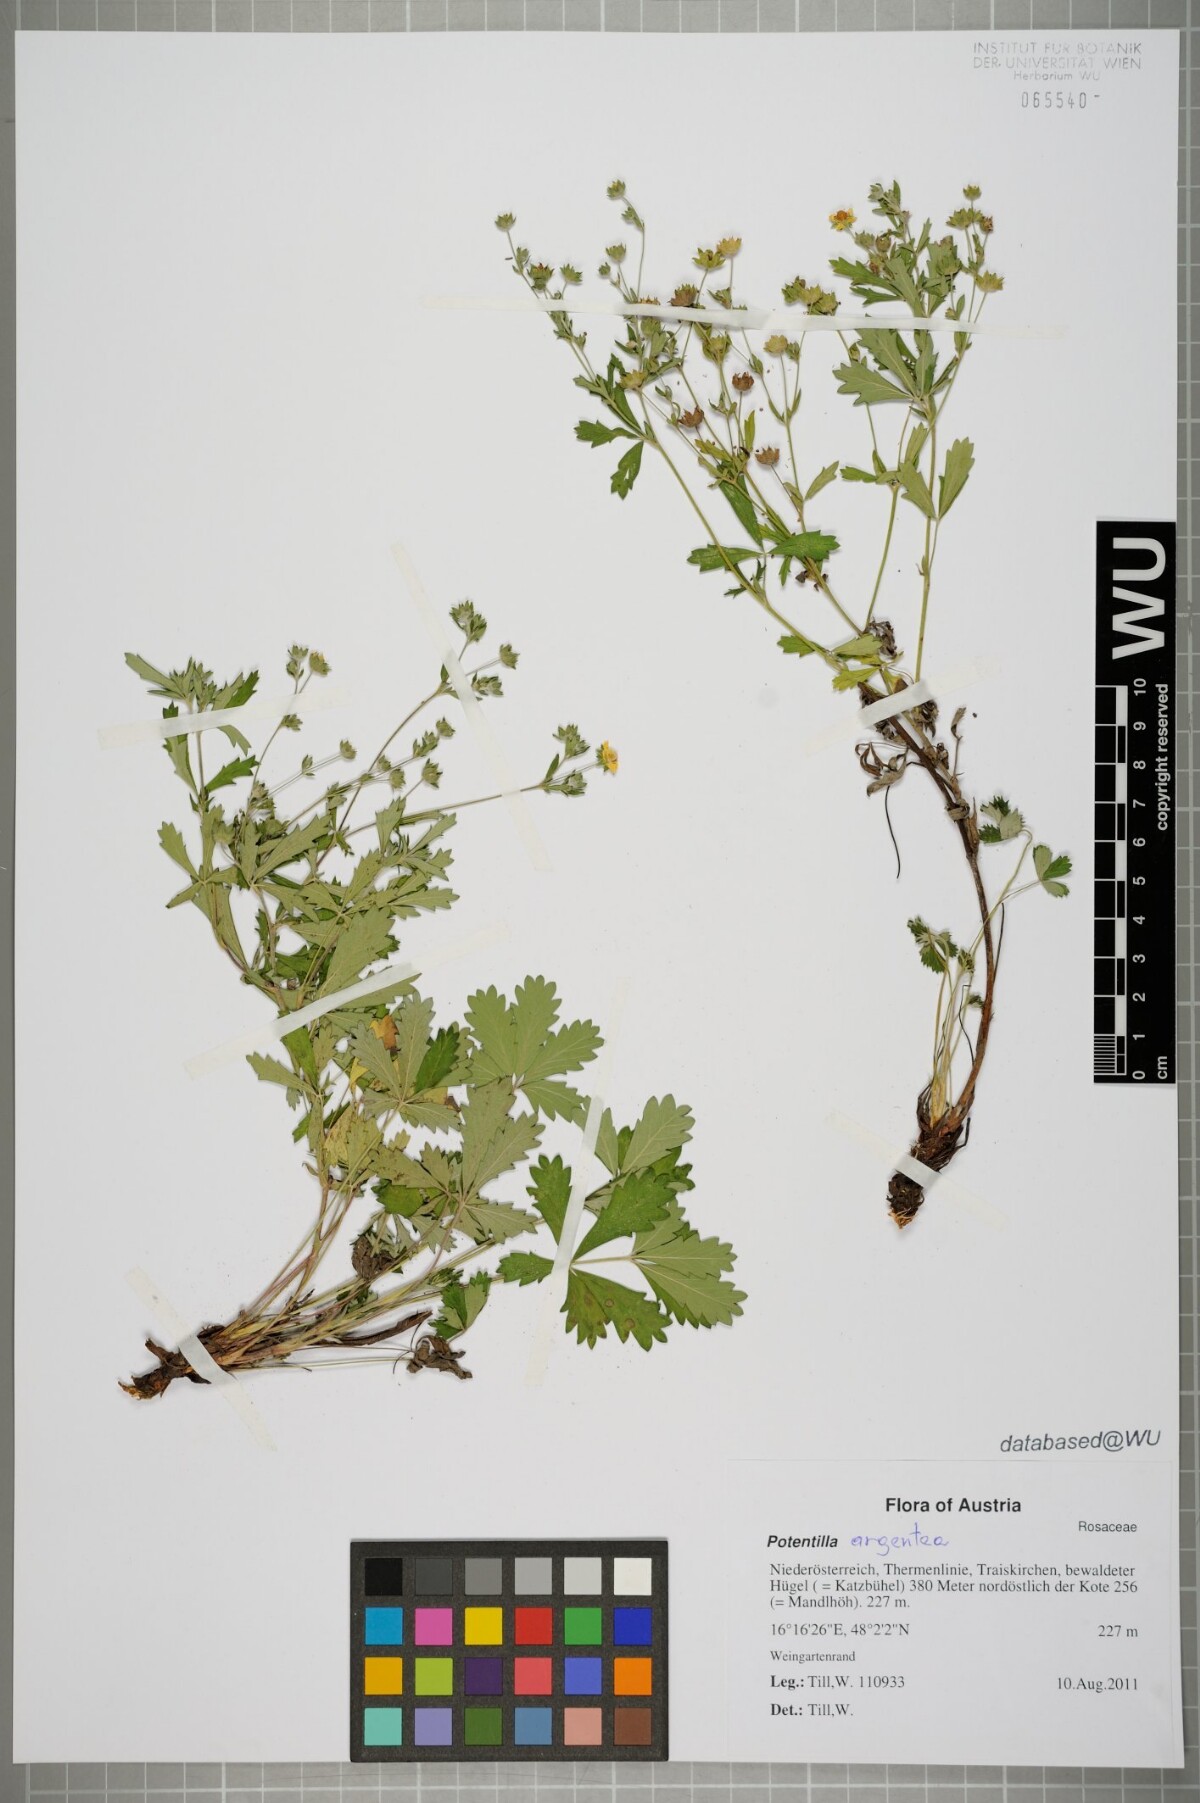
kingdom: Plantae
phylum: Tracheophyta
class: Magnoliopsida
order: Rosales
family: Rosaceae
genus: Potentilla
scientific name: Potentilla argentea
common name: Hoary cinquefoil
